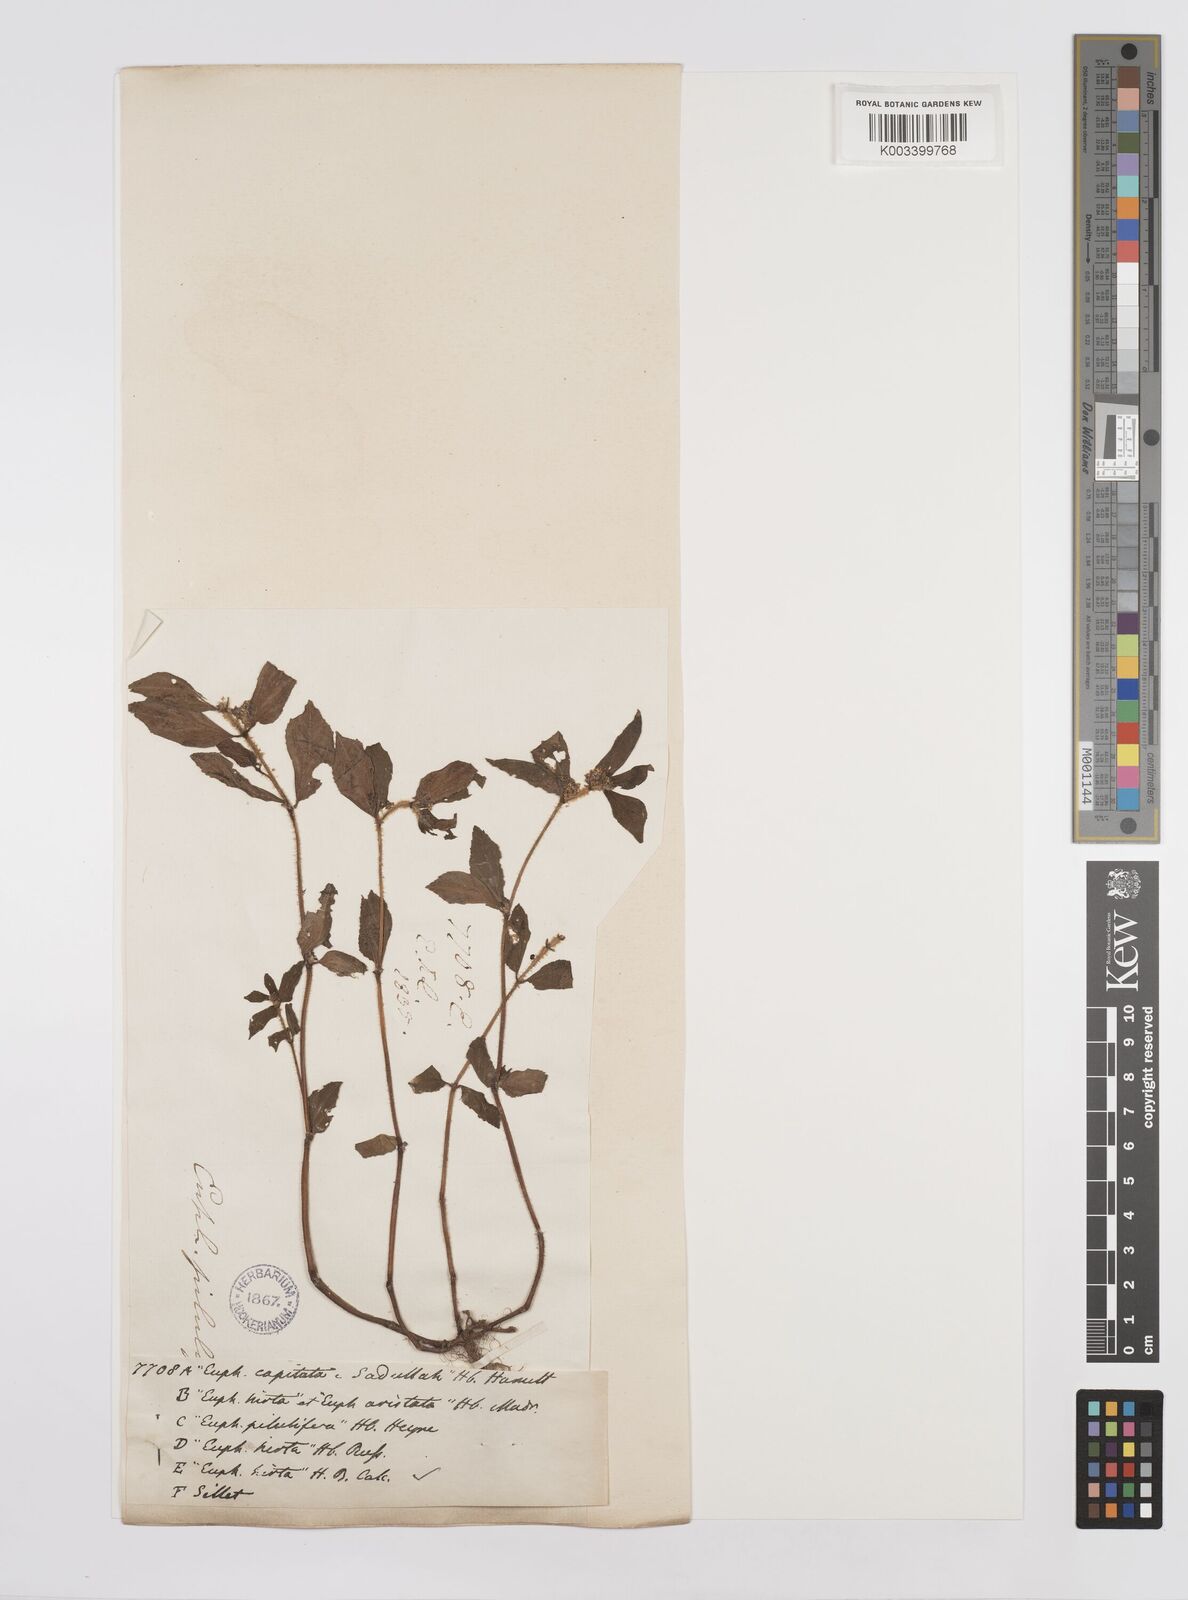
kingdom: Plantae
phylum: Tracheophyta
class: Magnoliopsida
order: Malpighiales
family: Euphorbiaceae
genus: Euphorbia
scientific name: Euphorbia hirta
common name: Pillpod sandmat
